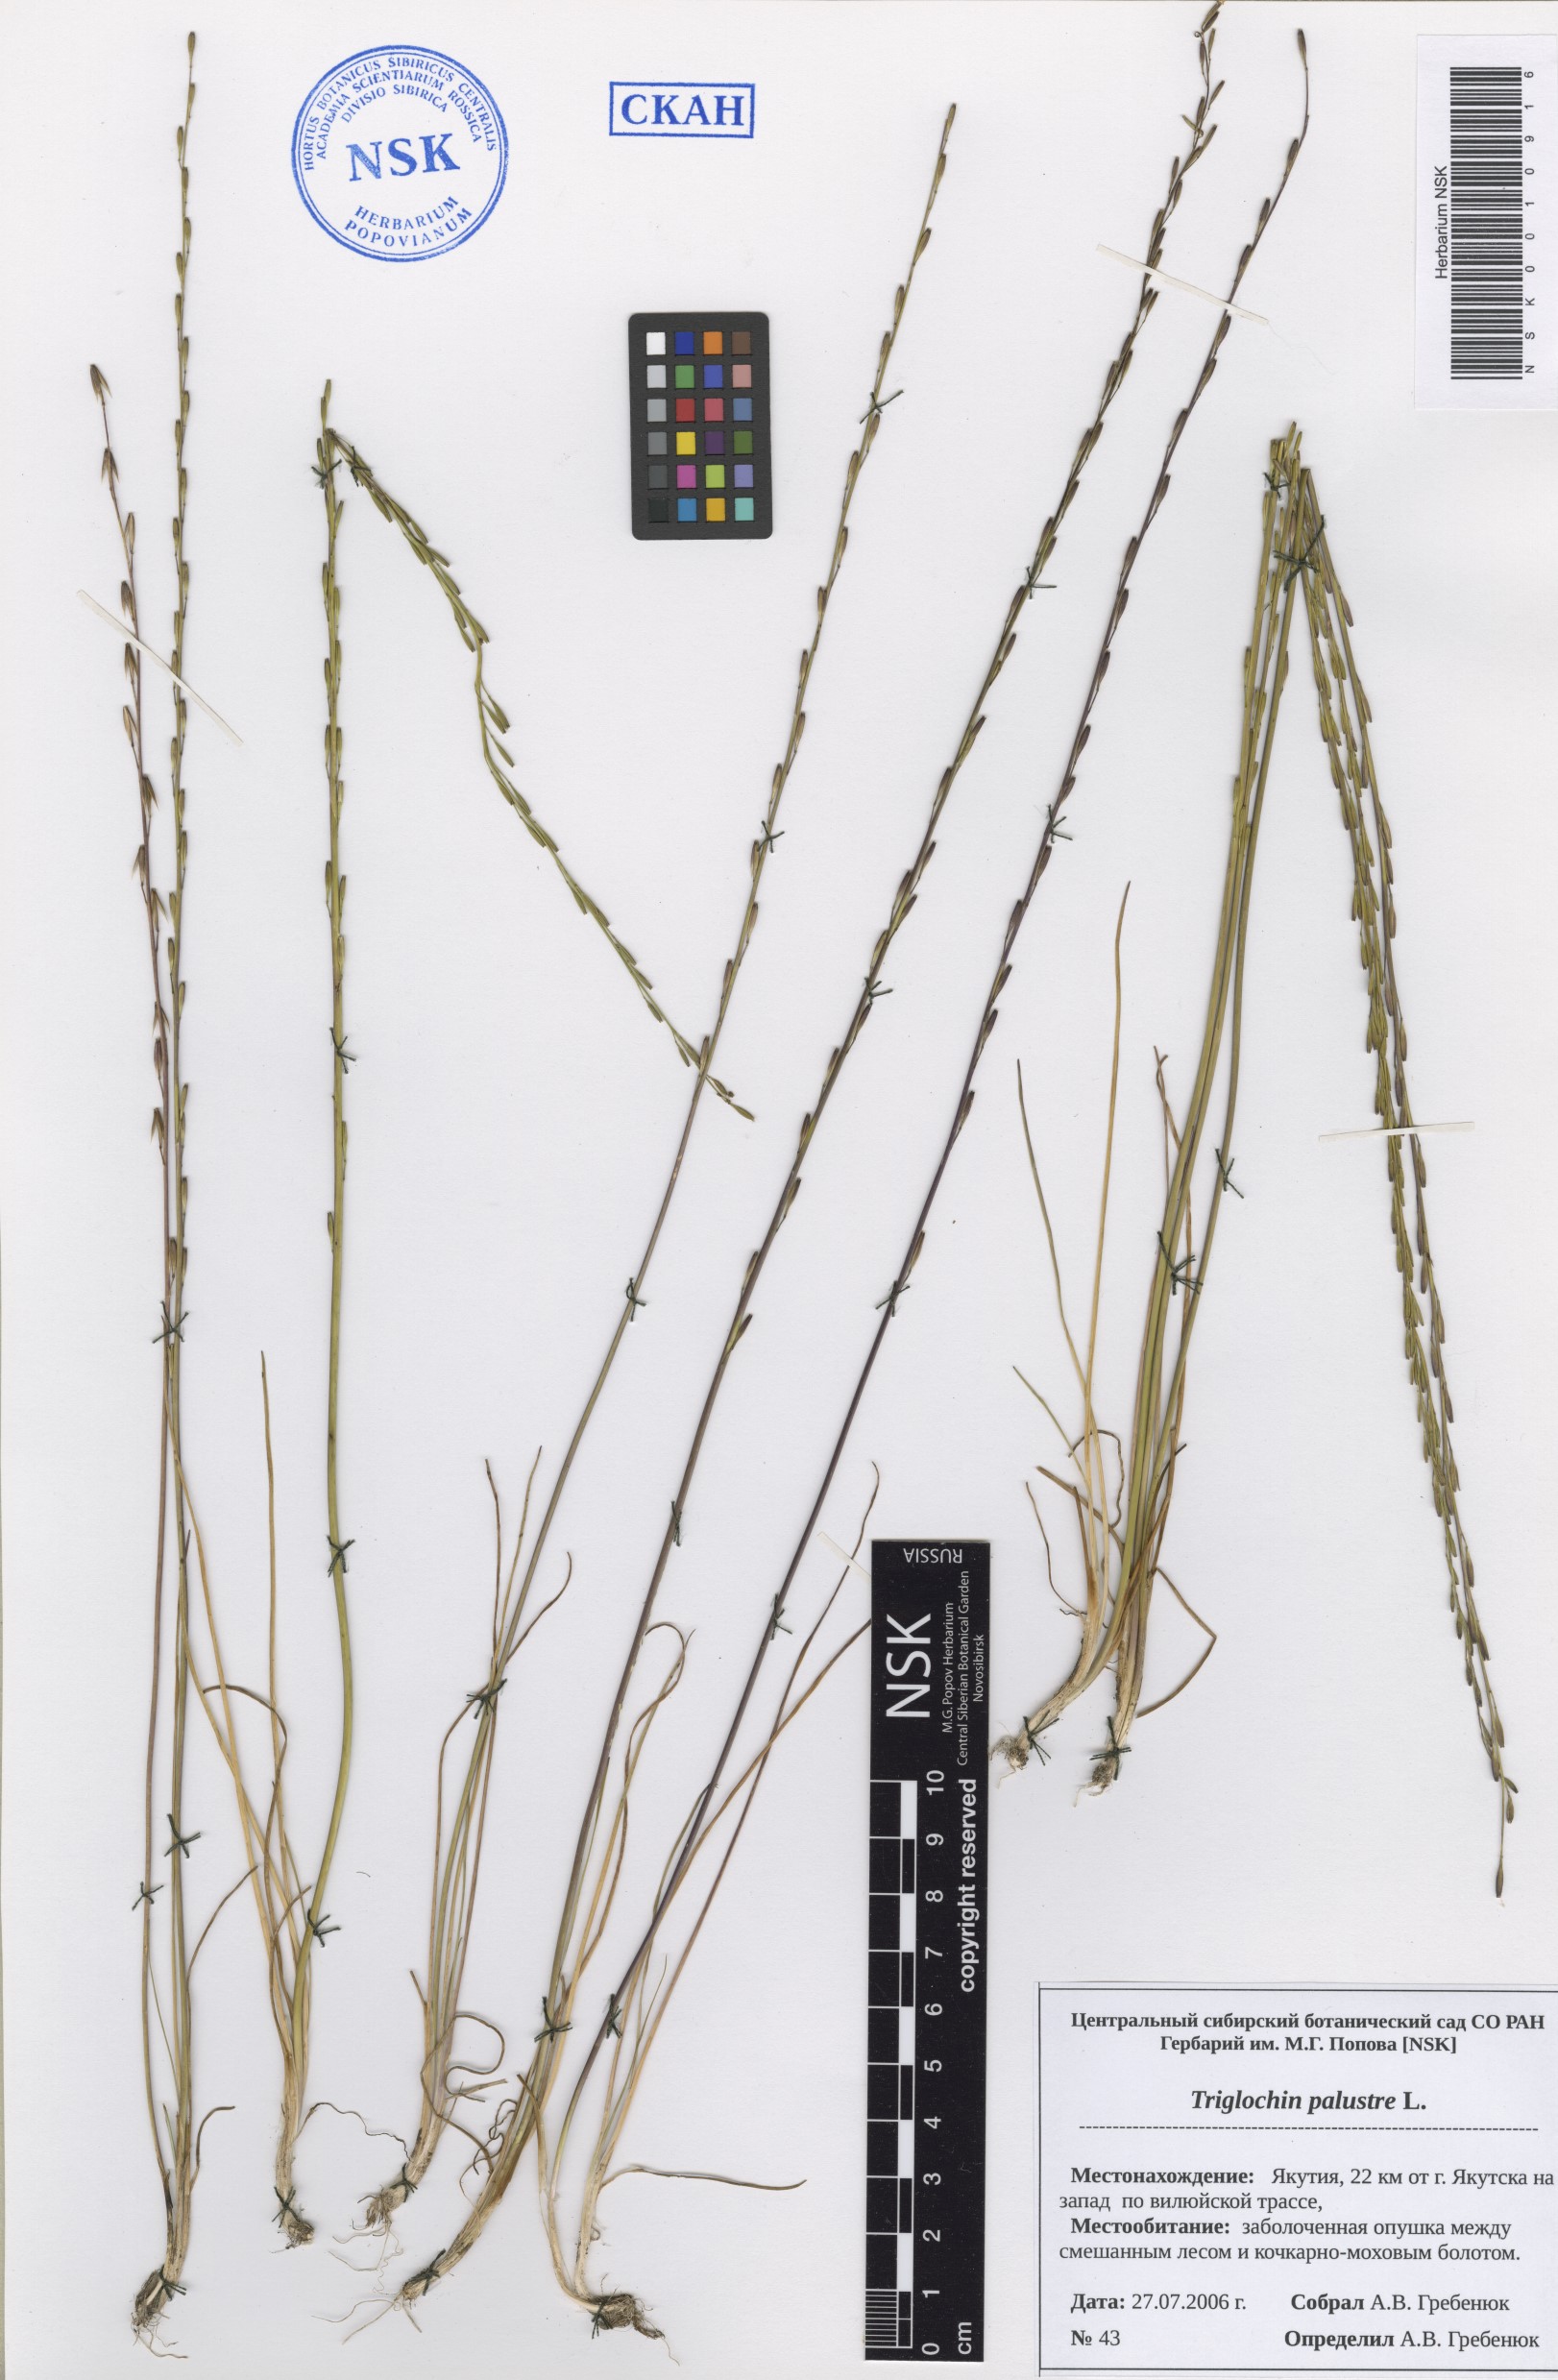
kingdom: Plantae
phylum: Tracheophyta
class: Liliopsida
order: Alismatales
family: Juncaginaceae
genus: Triglochin
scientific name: Triglochin palustris
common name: Marsh arrowgrass
